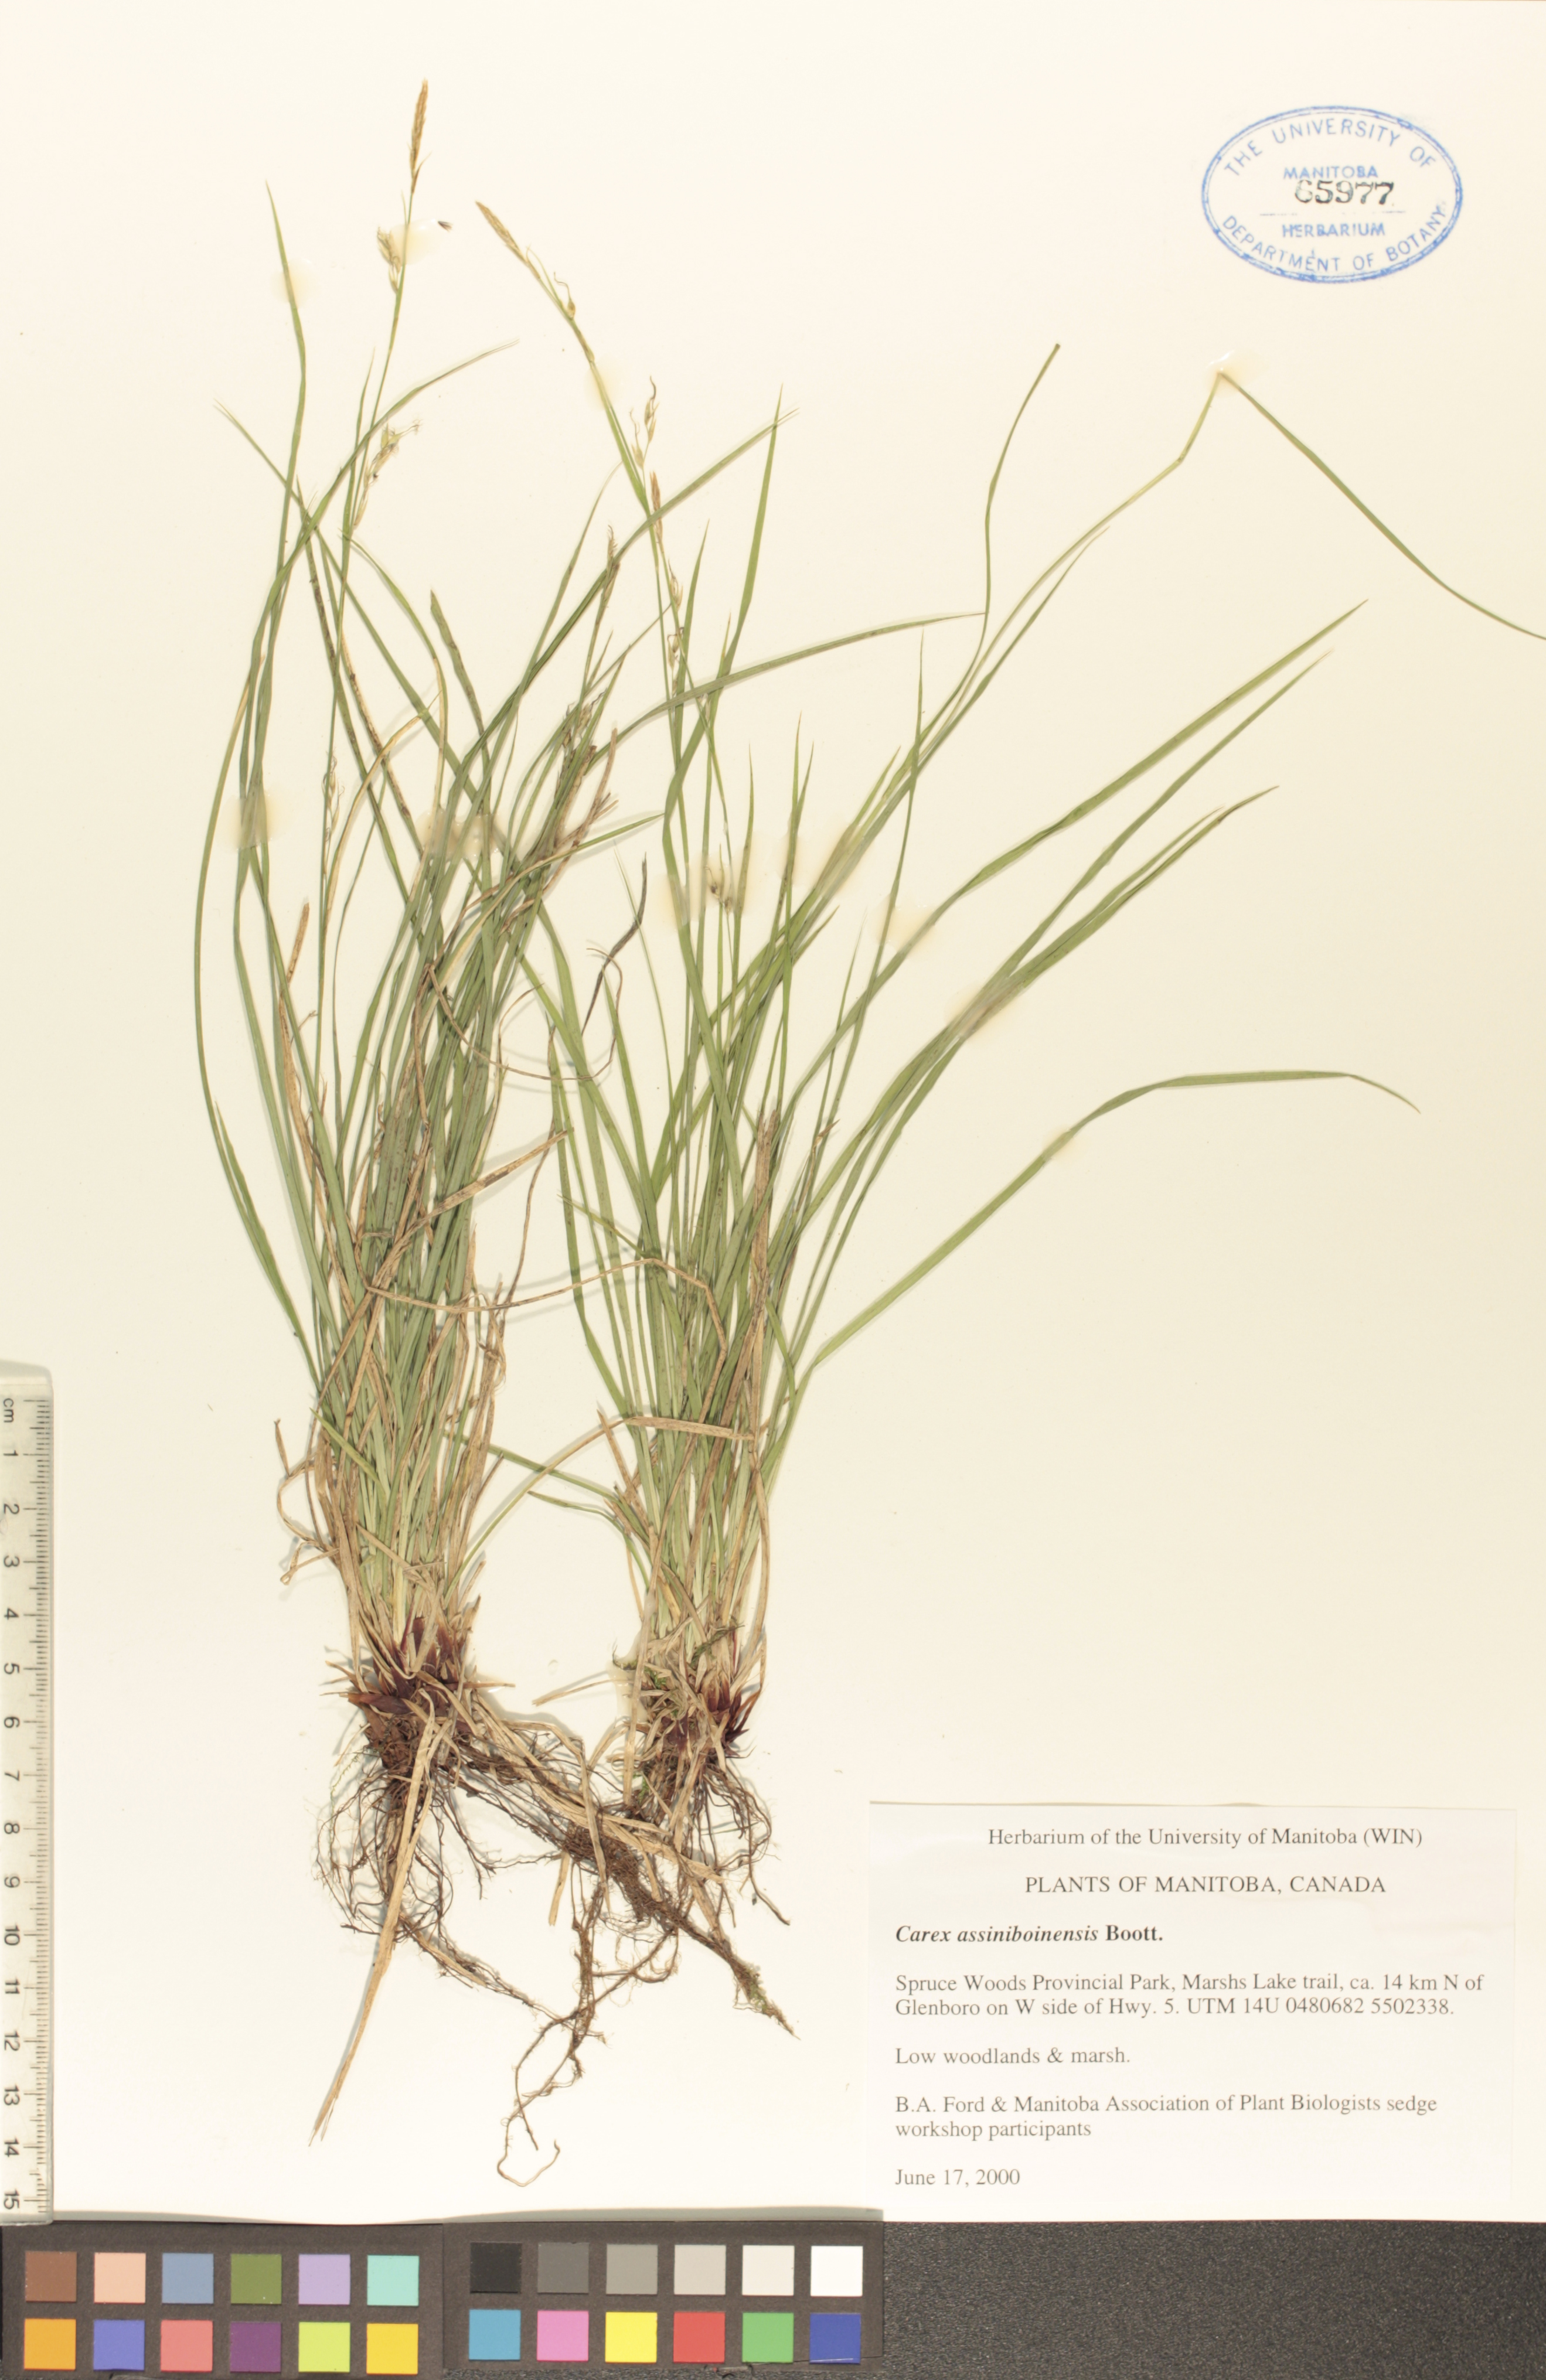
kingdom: Plantae
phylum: Tracheophyta
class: Liliopsida
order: Poales
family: Cyperaceae
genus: Carex
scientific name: Carex assiniboinensis
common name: Assiniboia sedge
